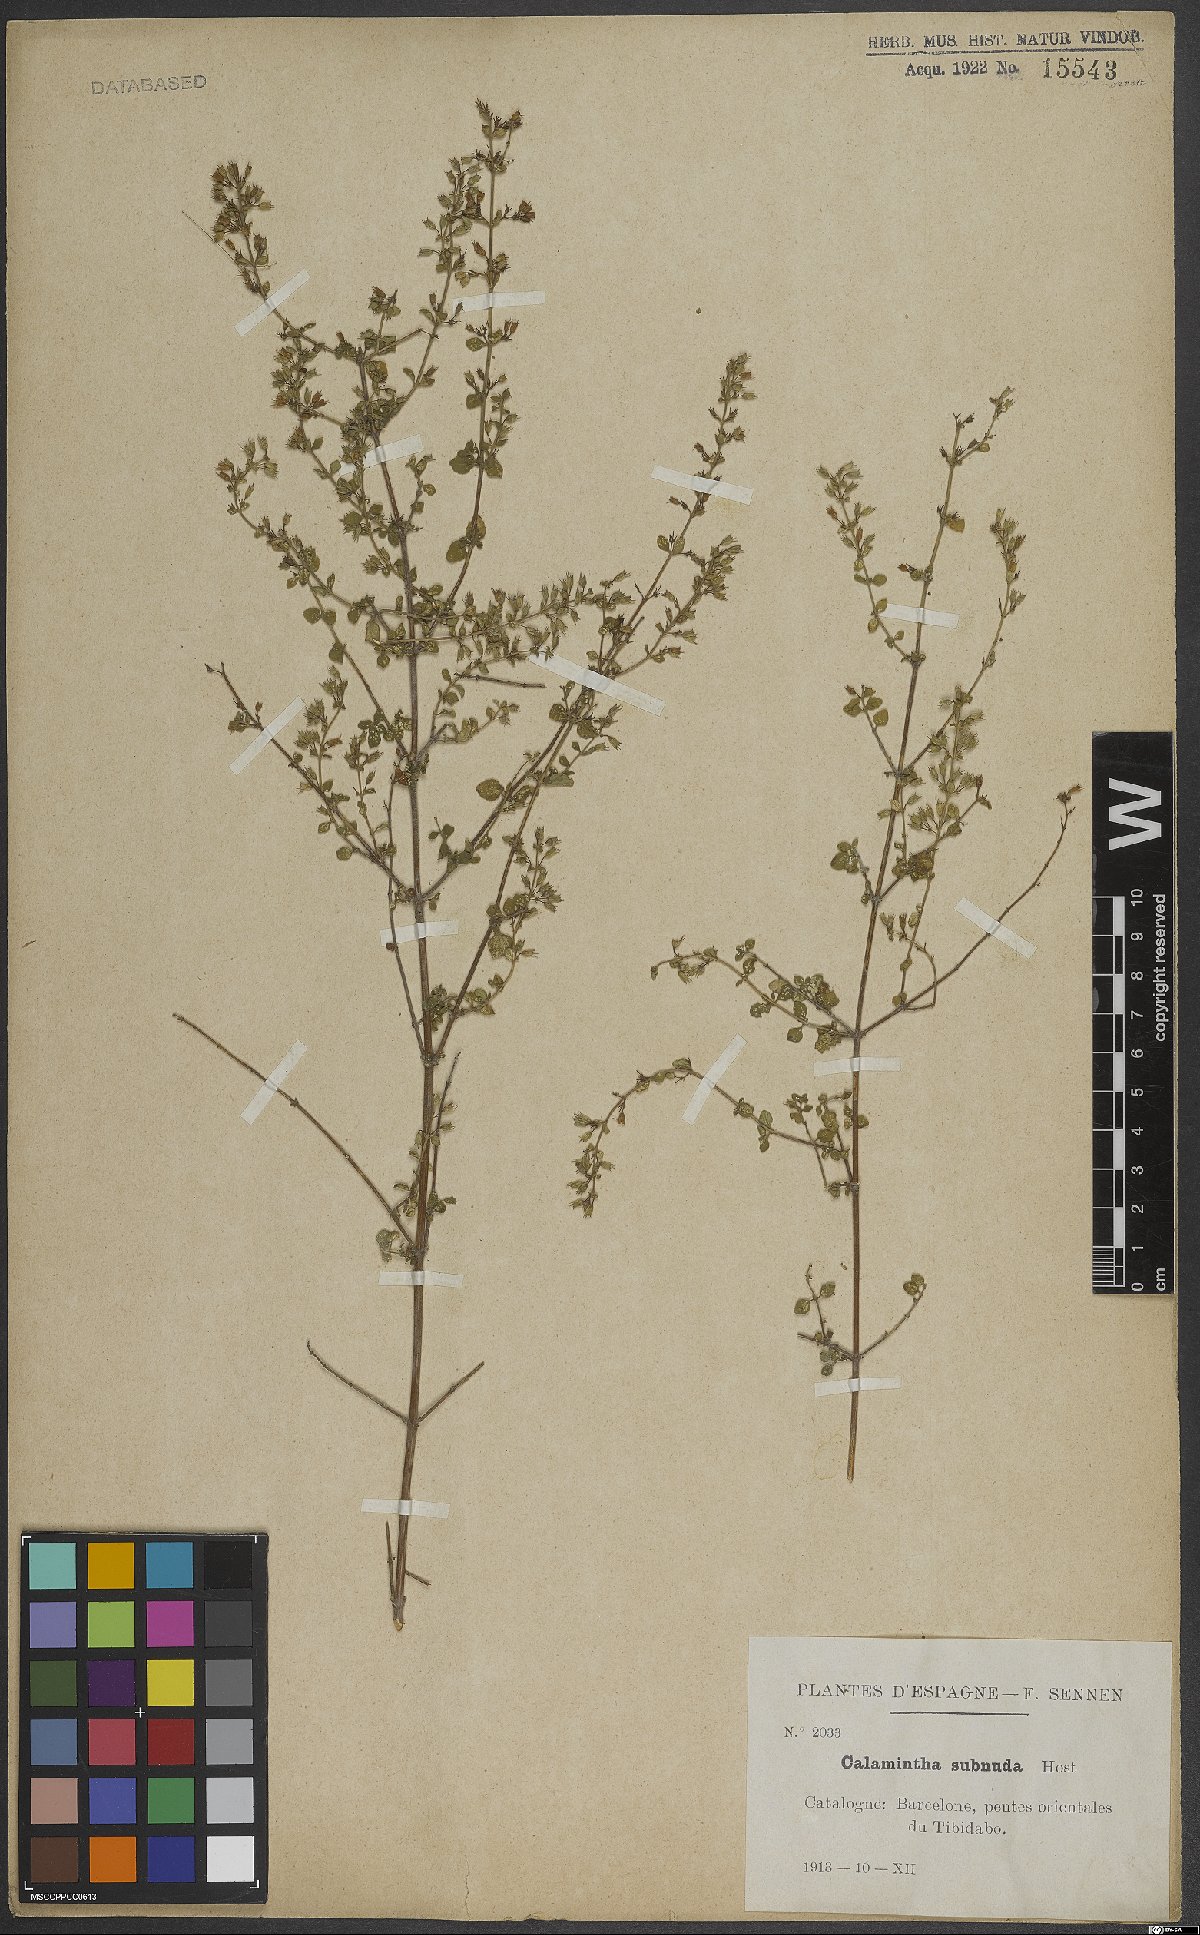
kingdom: Plantae
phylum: Tracheophyta
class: Magnoliopsida
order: Lamiales
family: Lamiaceae
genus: Clinopodium
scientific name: Clinopodium nepeta
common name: Lesser calamint
